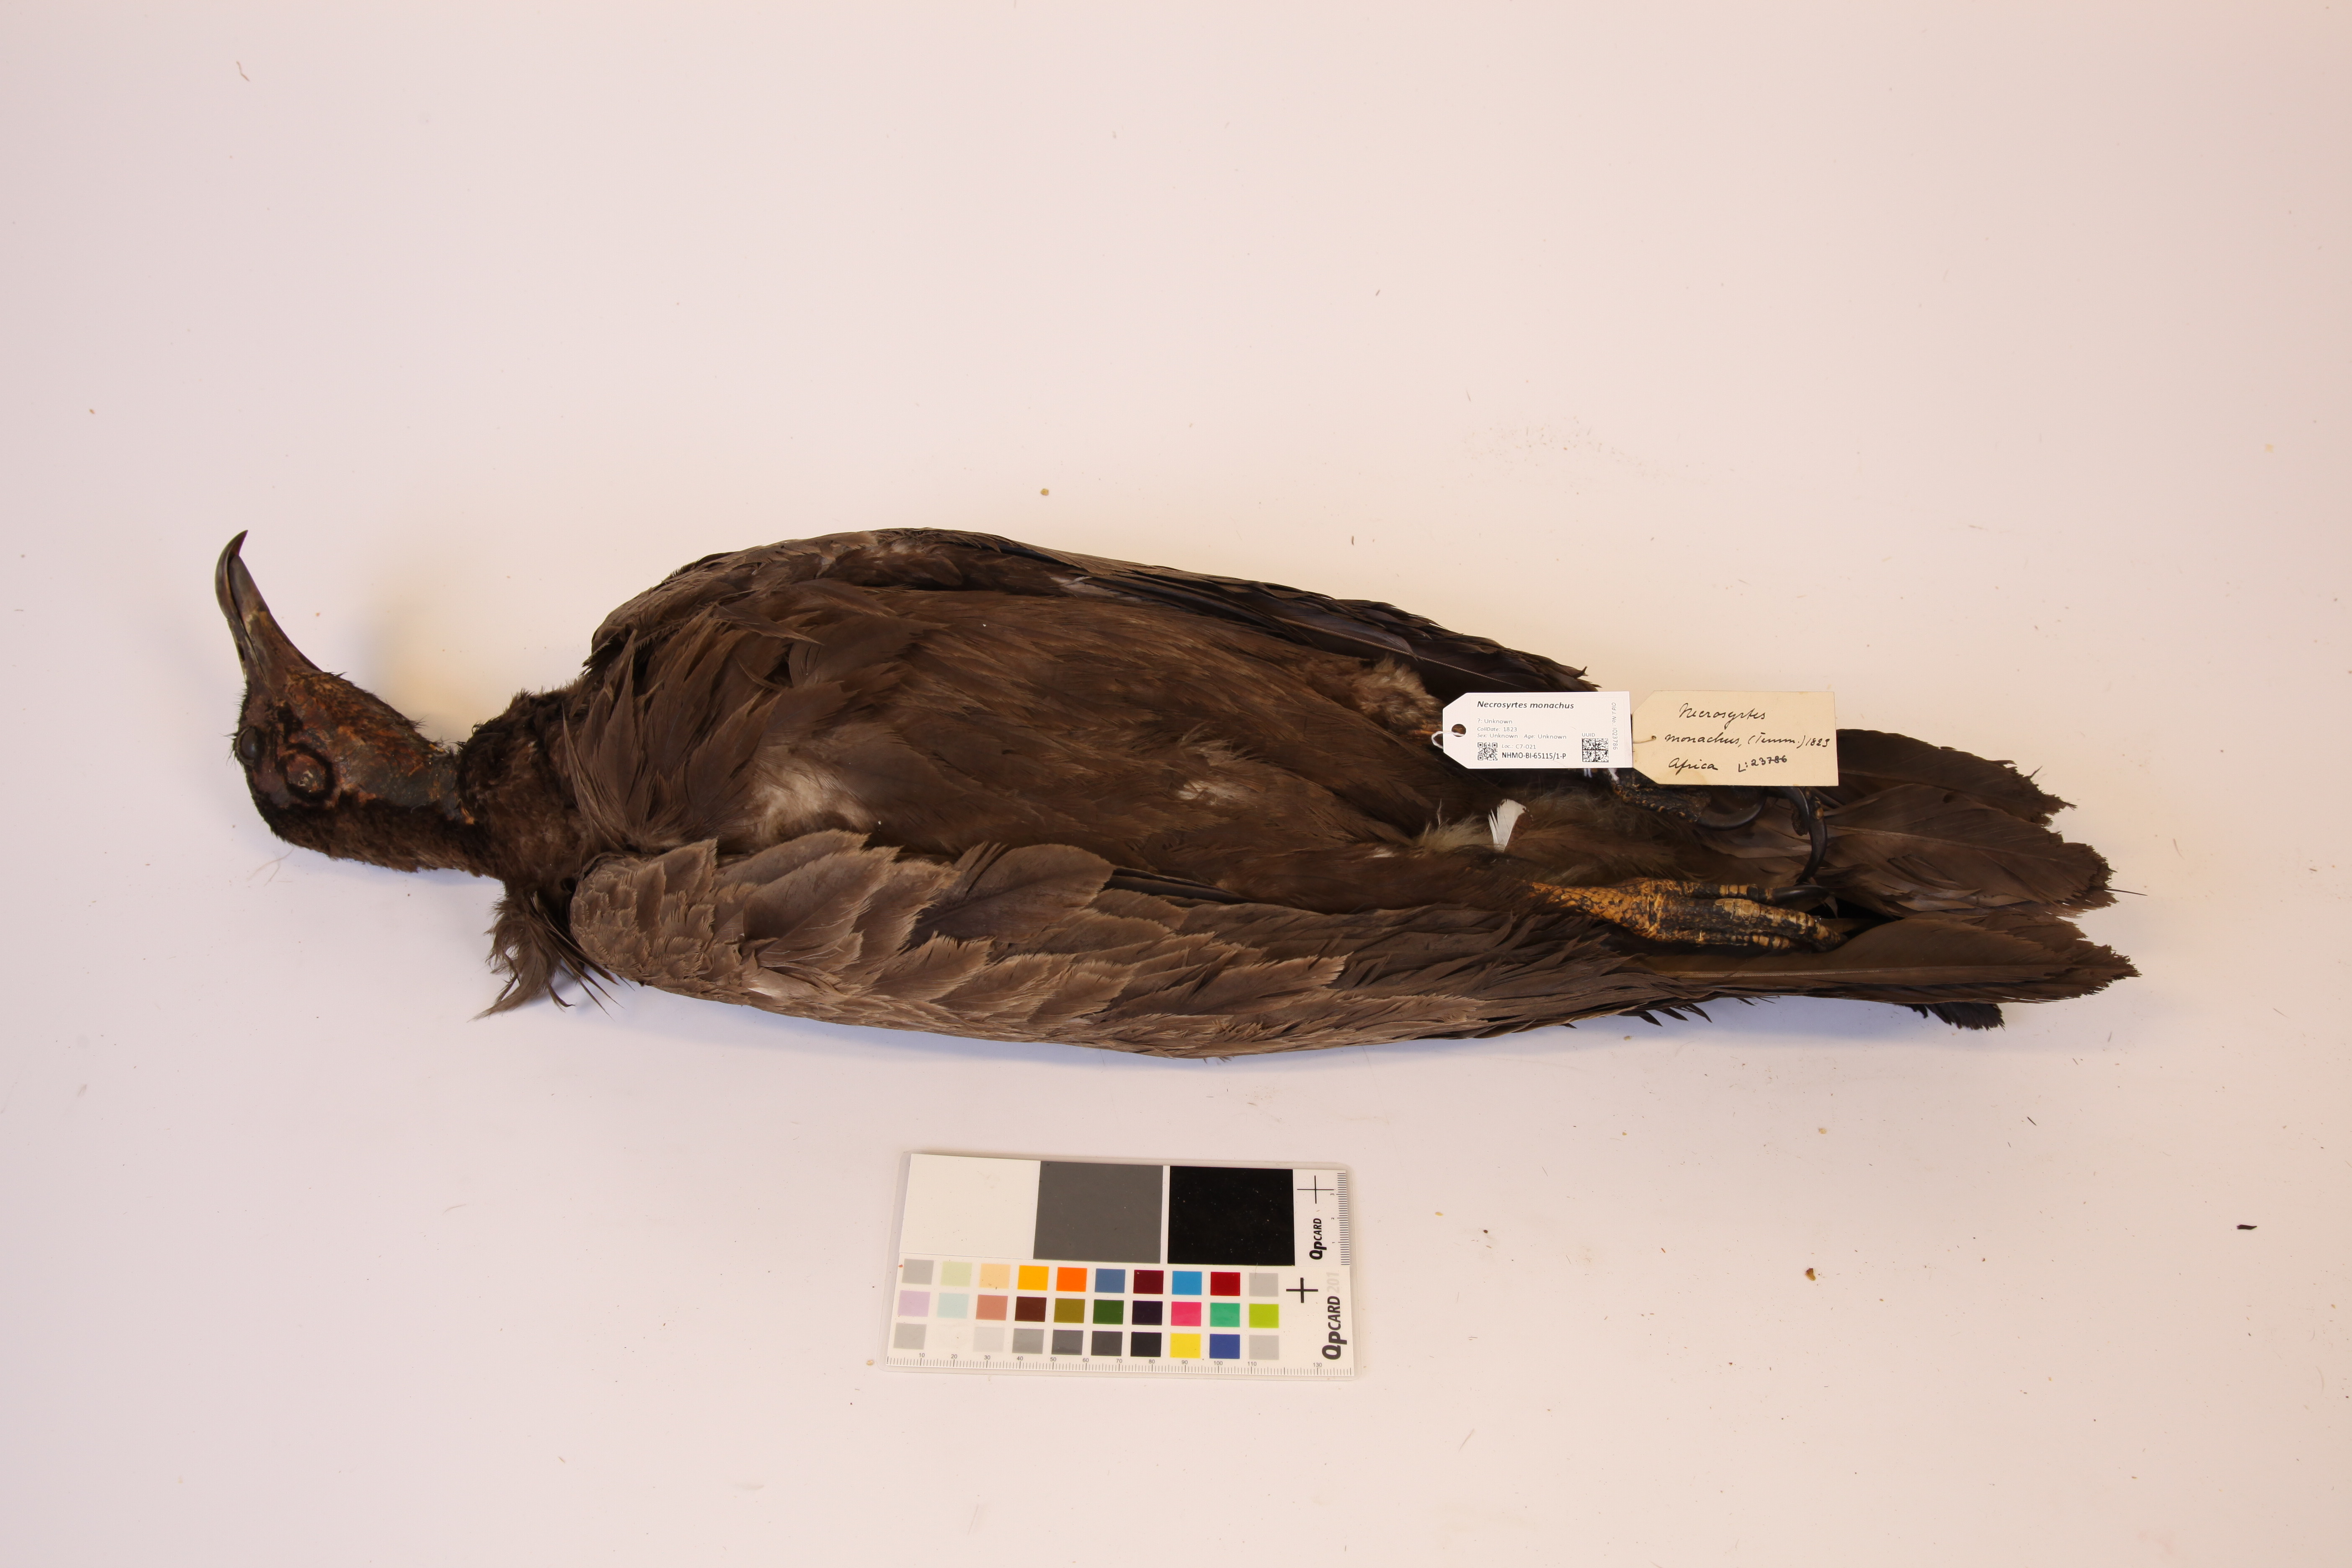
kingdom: Animalia
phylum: Chordata
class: Aves
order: Accipitriformes
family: Accipitridae
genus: Necrosyrtes
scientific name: Necrosyrtes monachus
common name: Hooded vulture
